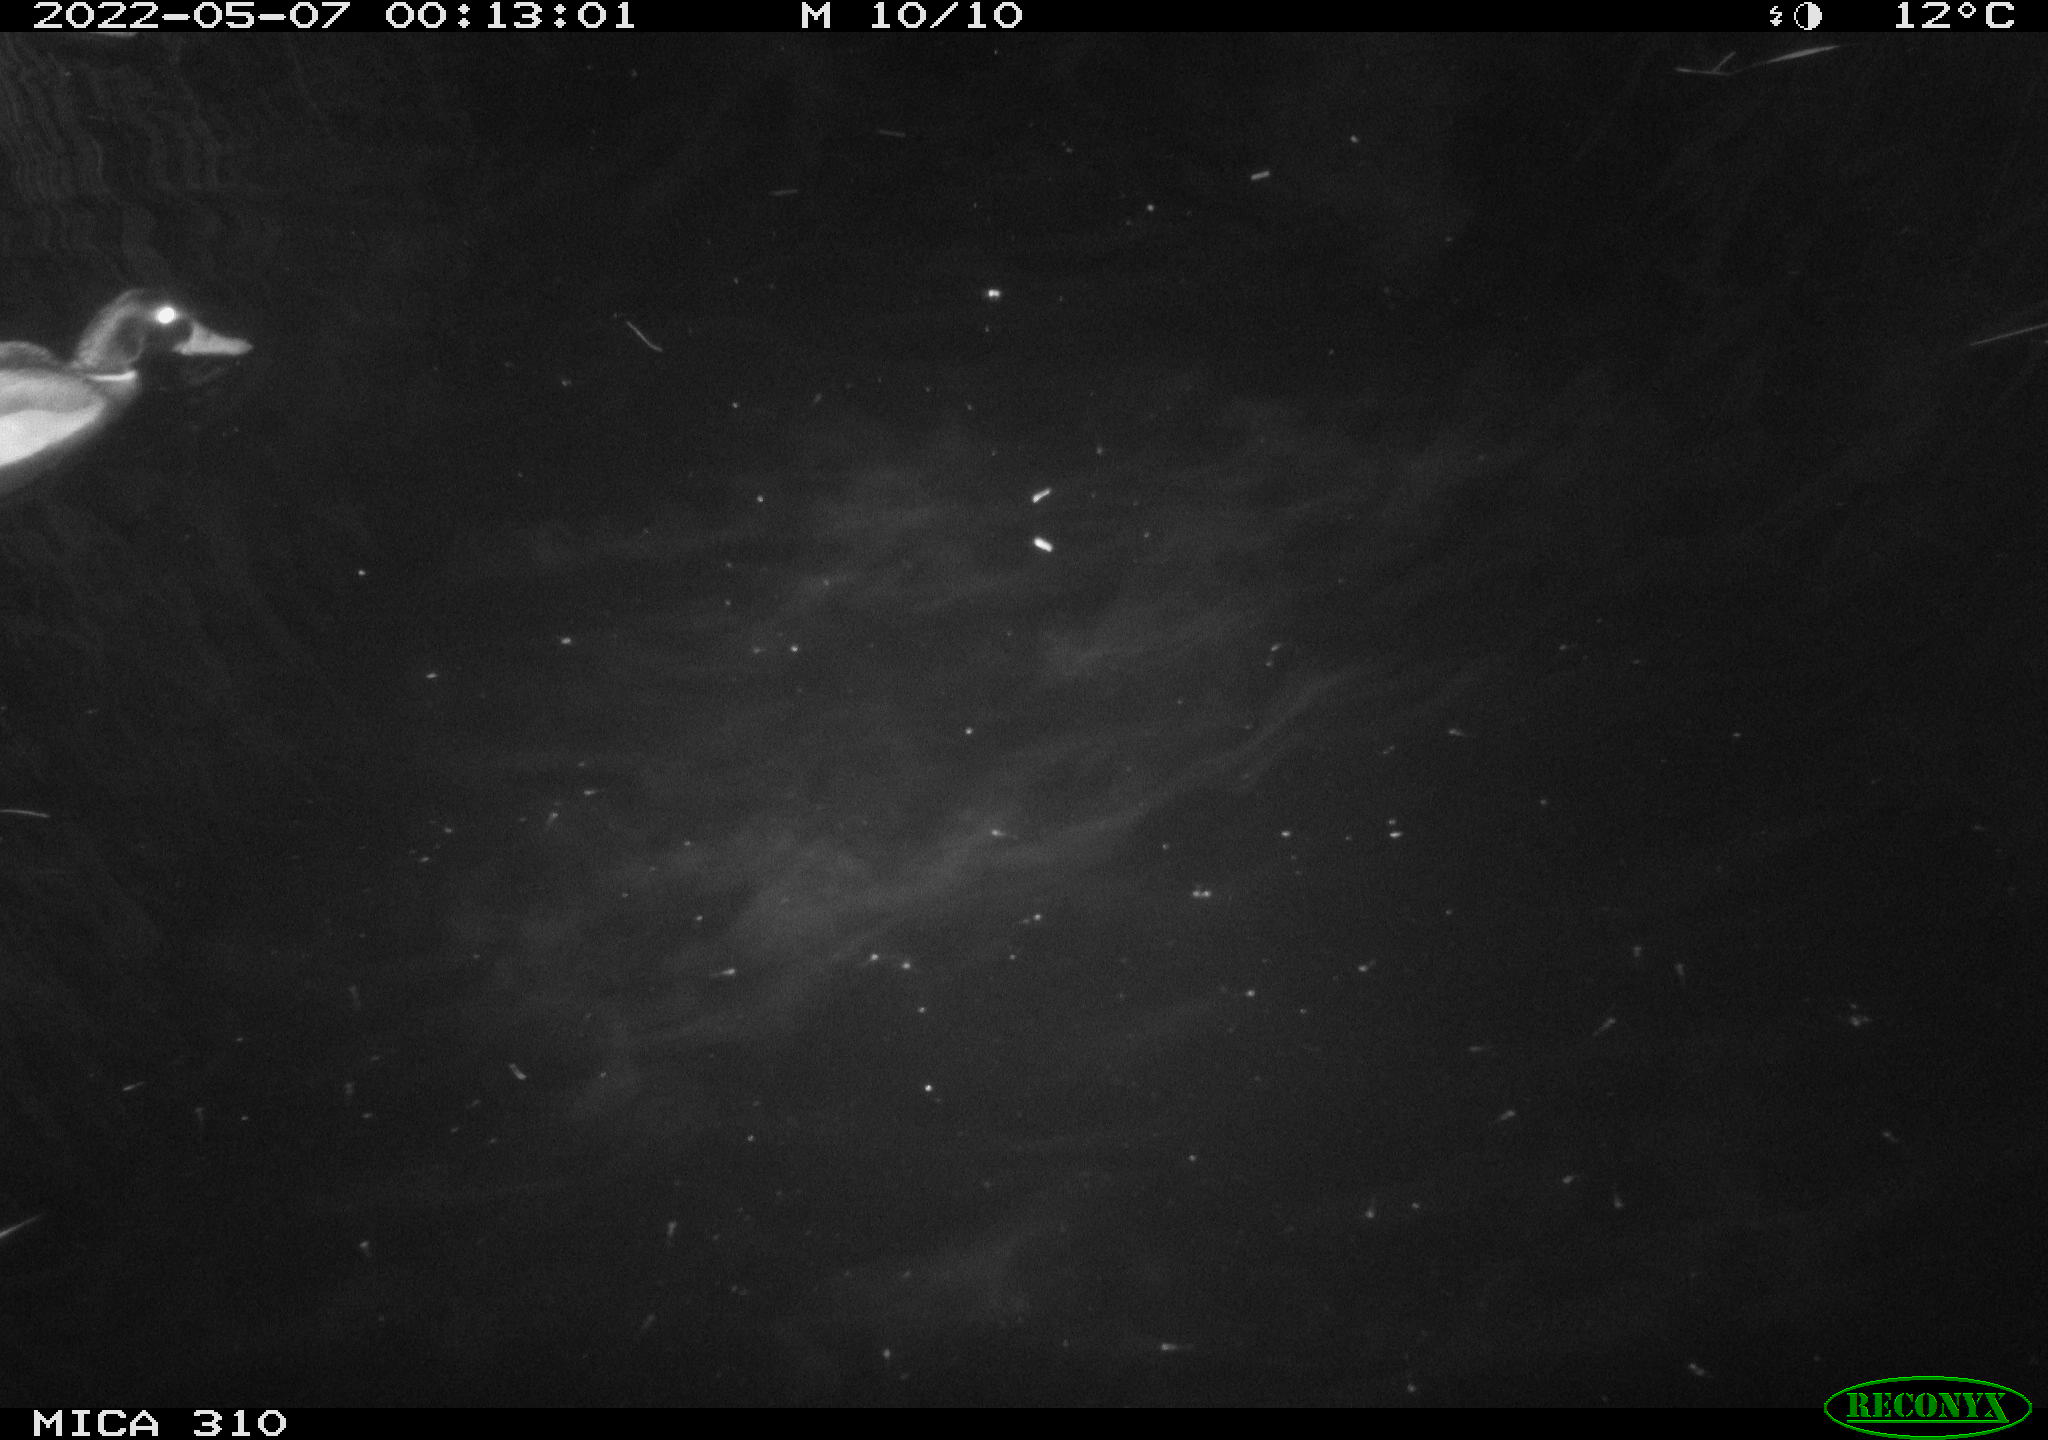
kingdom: Animalia
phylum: Chordata
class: Aves
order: Anseriformes
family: Anatidae
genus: Anas
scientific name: Anas platyrhynchos
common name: Mallard
